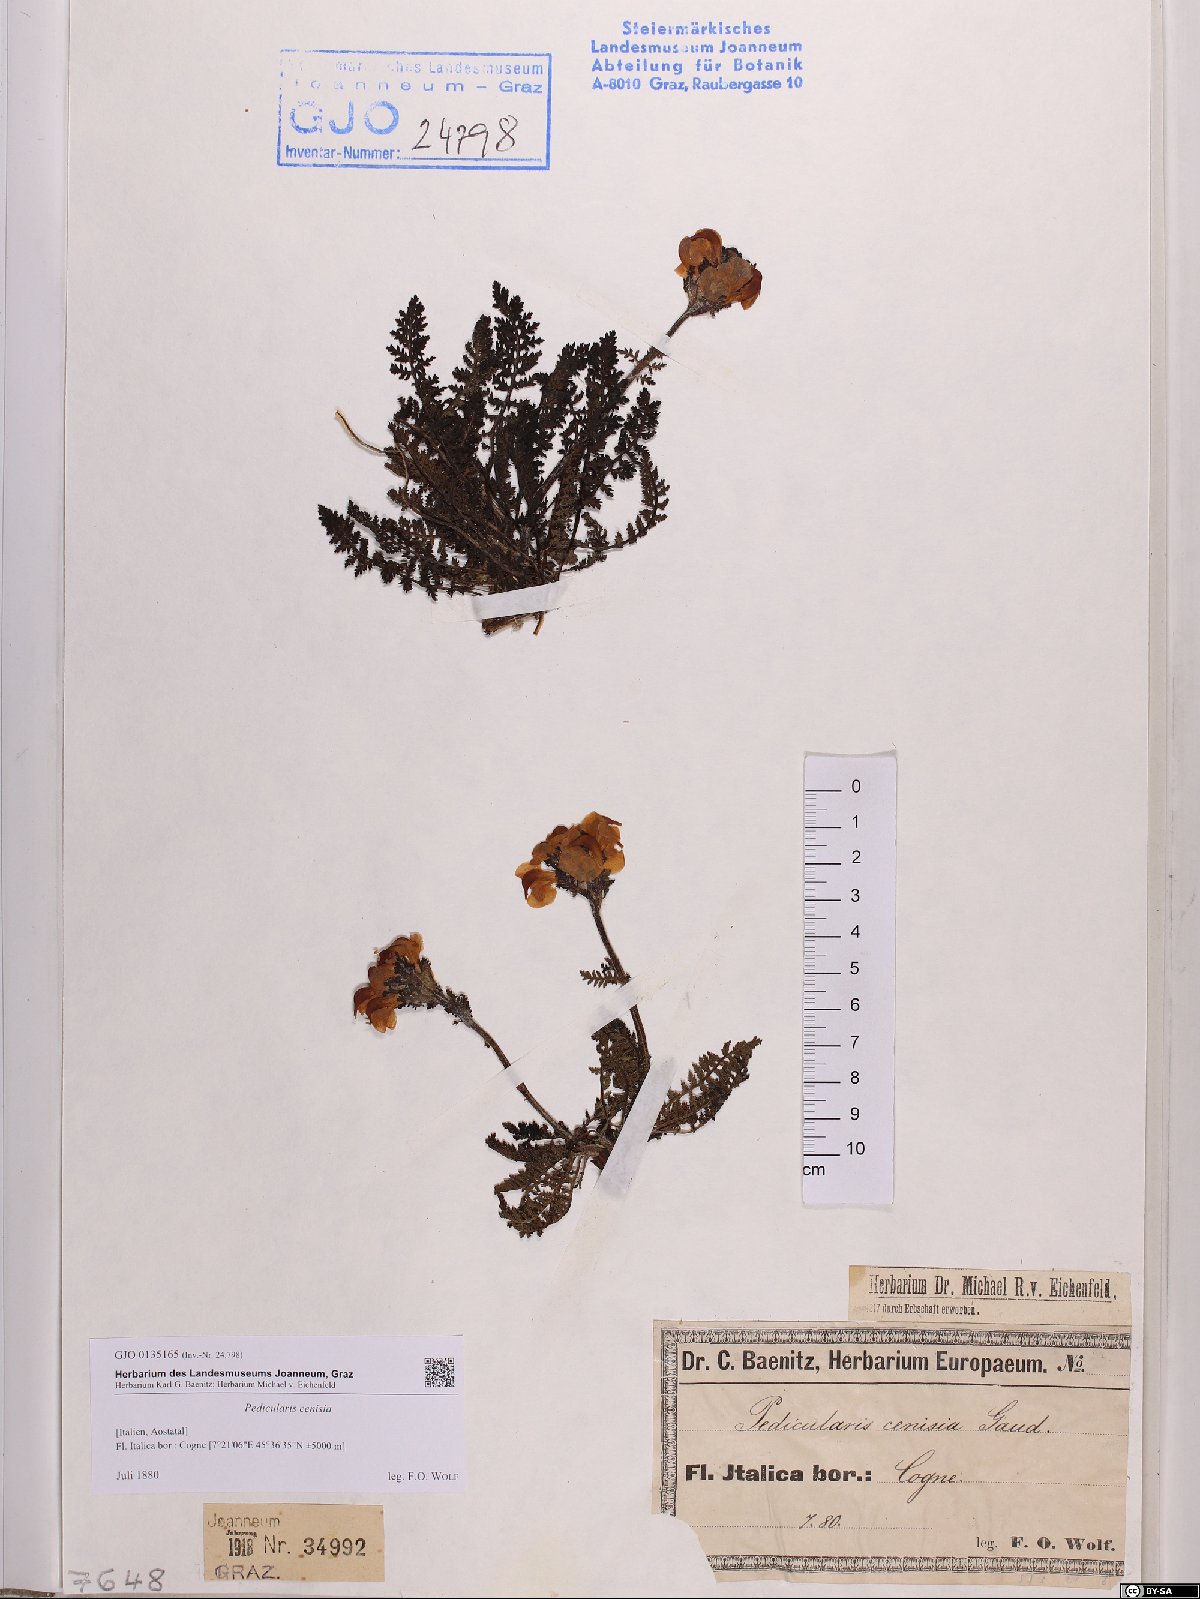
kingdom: Plantae
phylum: Tracheophyta
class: Magnoliopsida
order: Lamiales
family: Orobanchaceae
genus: Pedicularis
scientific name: Pedicularis cenisia
